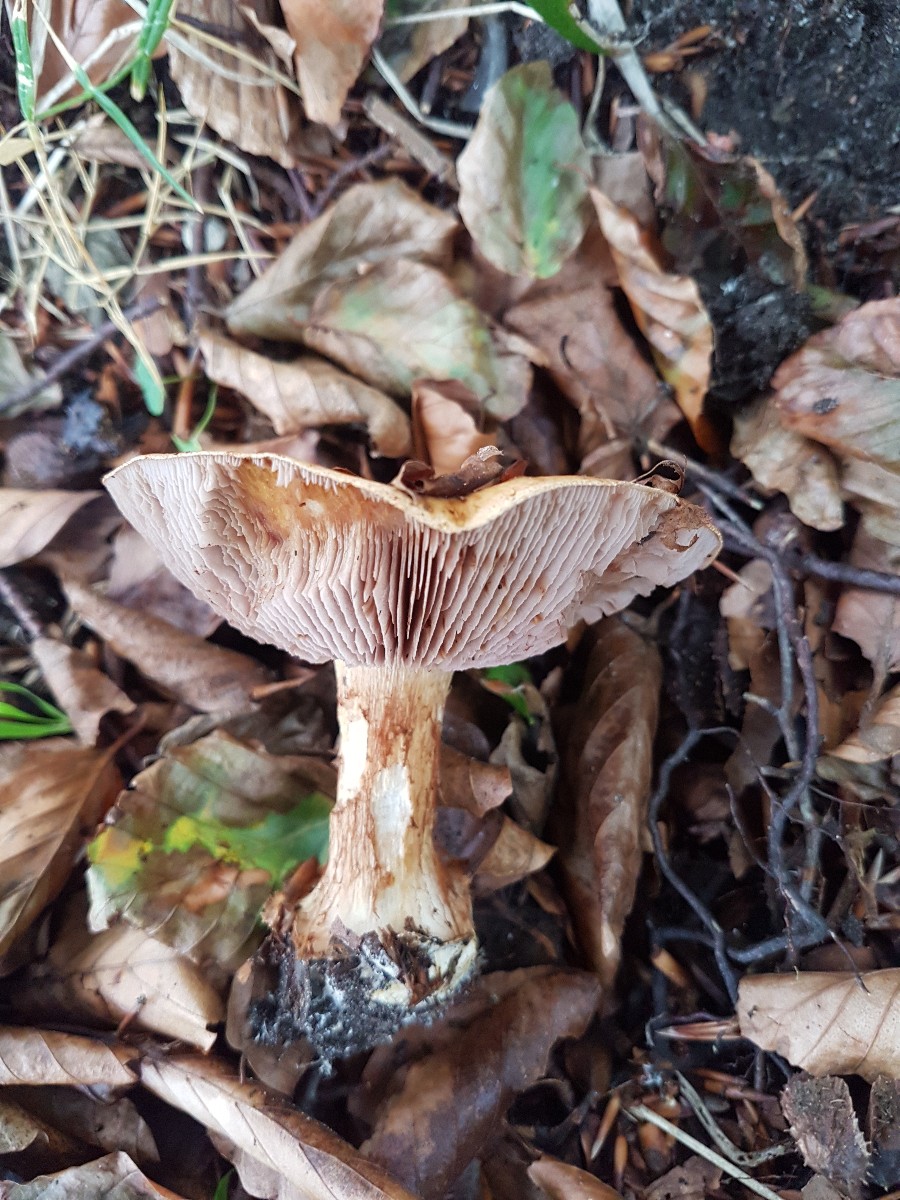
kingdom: Fungi
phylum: Basidiomycota
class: Agaricomycetes
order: Agaricales
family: Cortinariaceae
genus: Calonarius
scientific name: Calonarius cisticola
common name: cistus-slørhat
